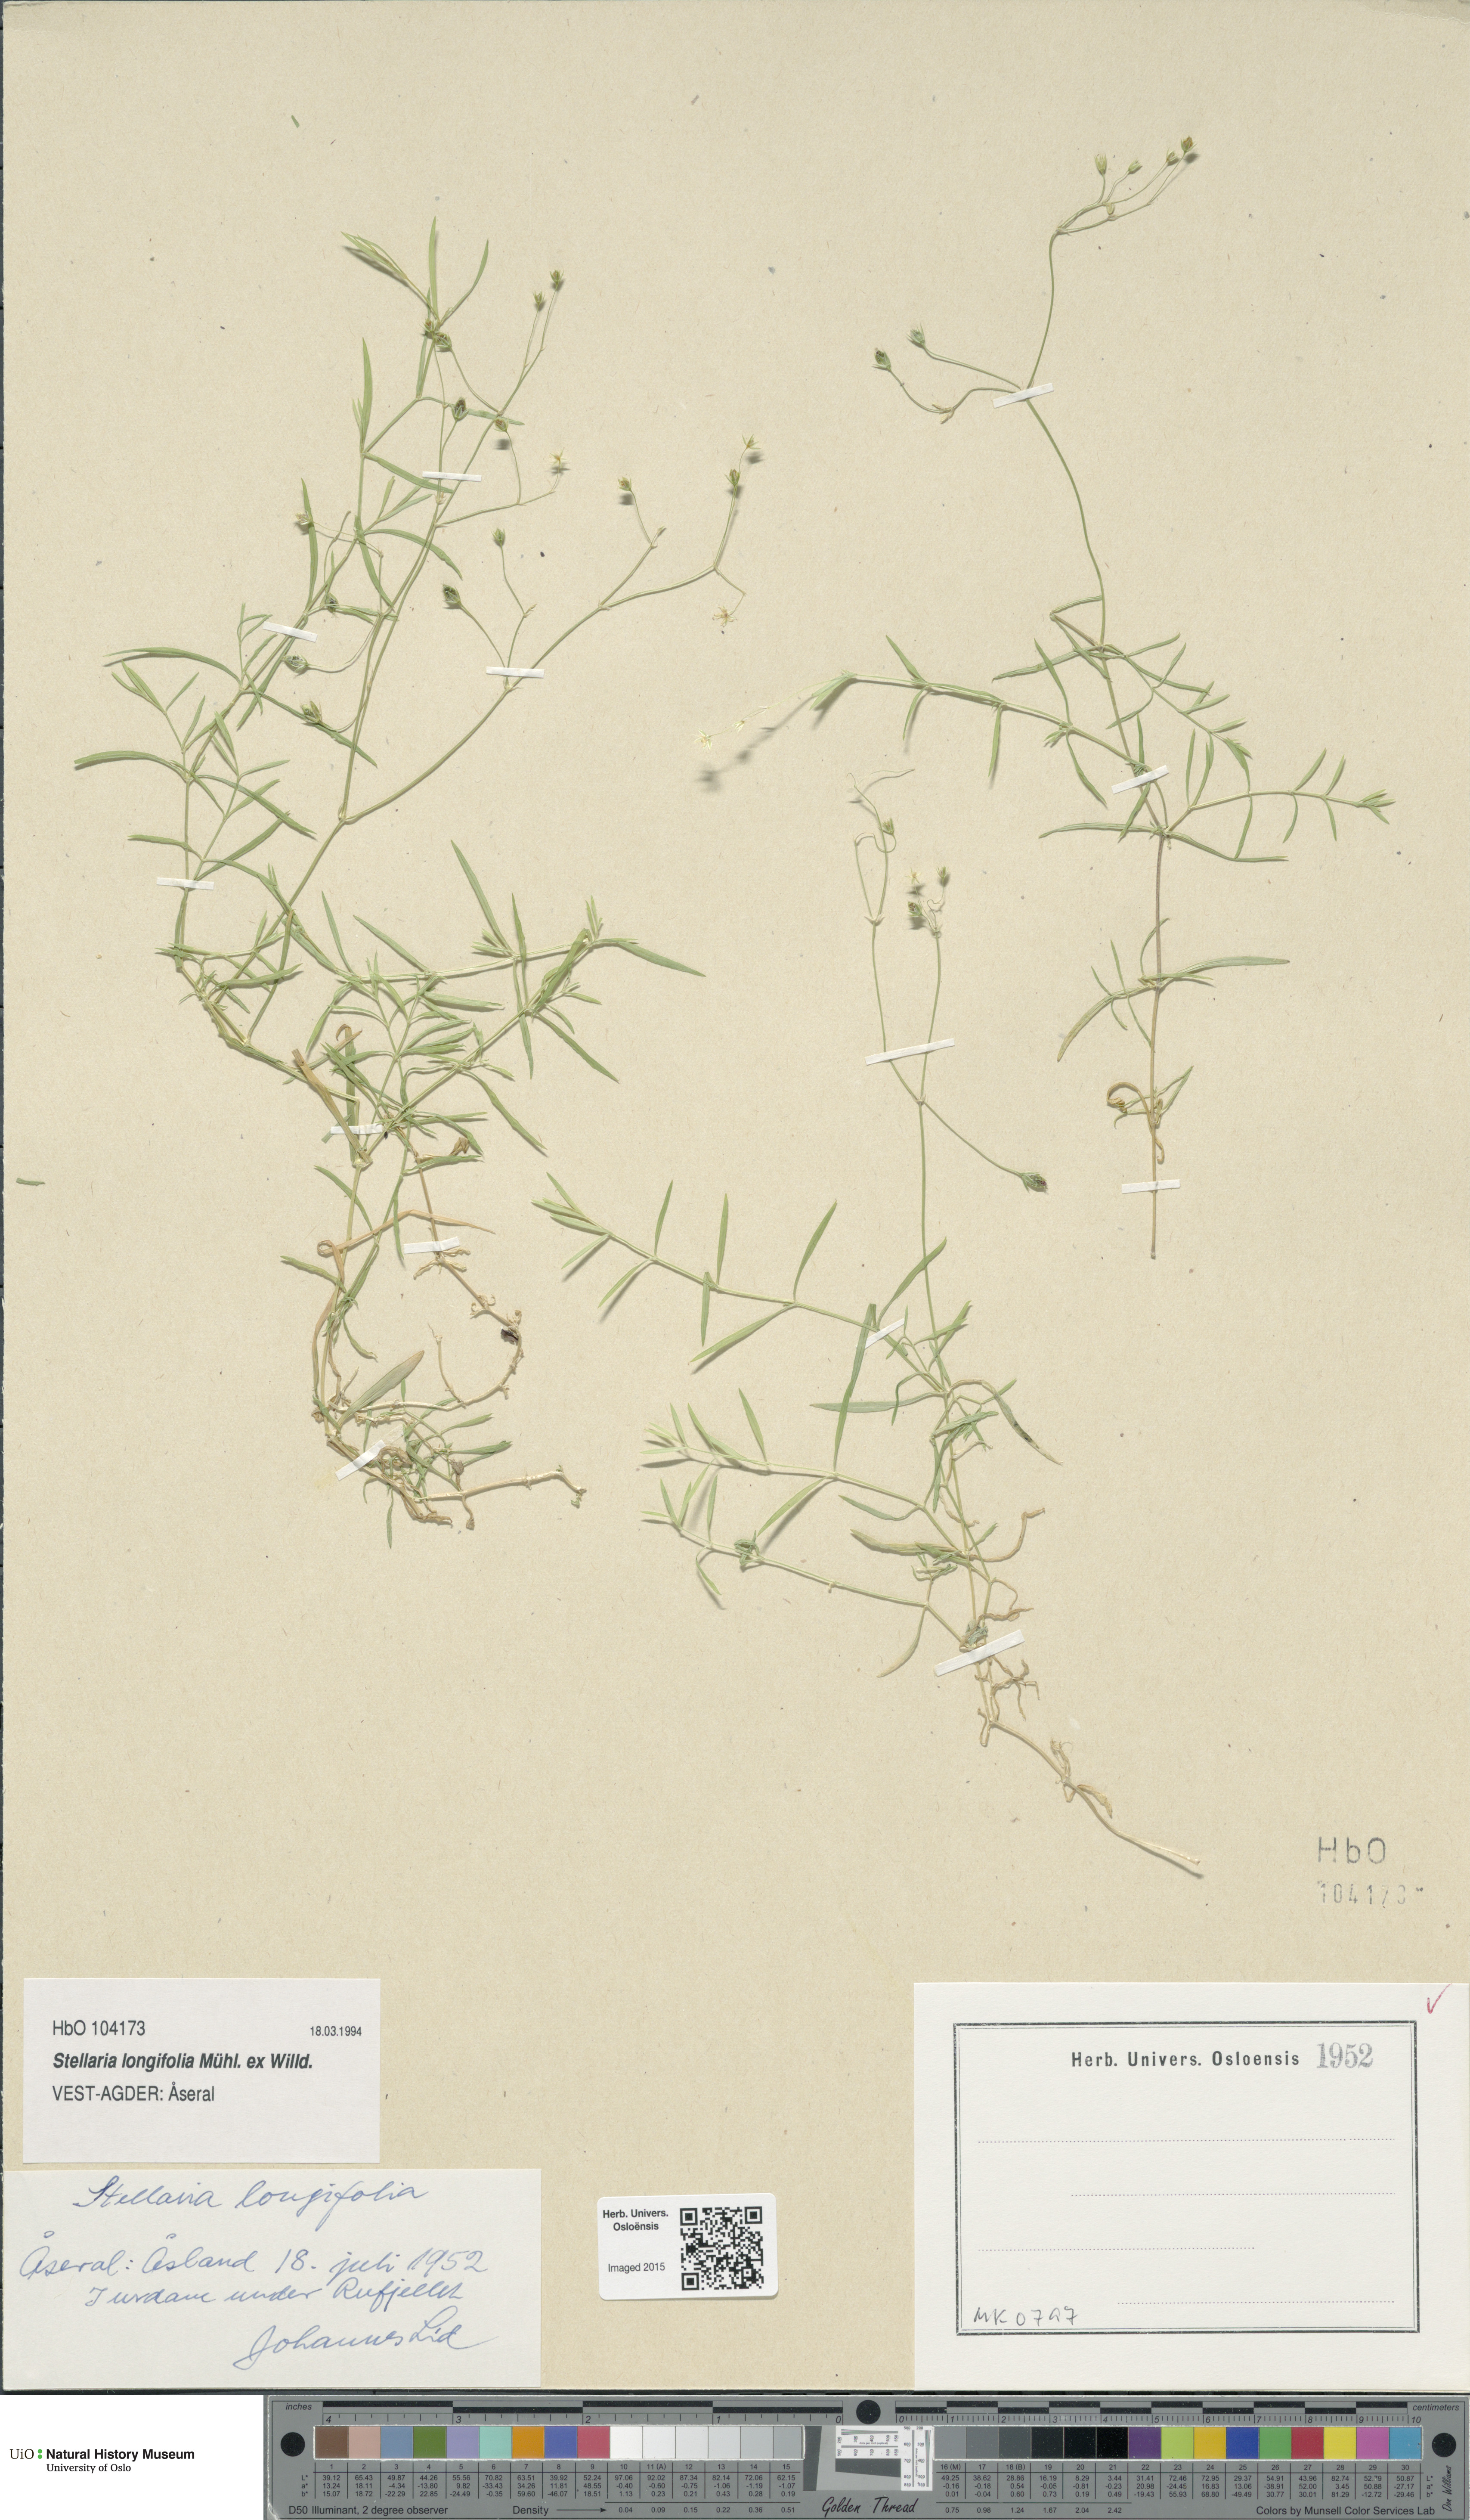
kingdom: Plantae
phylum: Tracheophyta
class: Magnoliopsida
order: Caryophyllales
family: Caryophyllaceae
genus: Stellaria
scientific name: Stellaria longifolia
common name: Long-leaved chickweed
